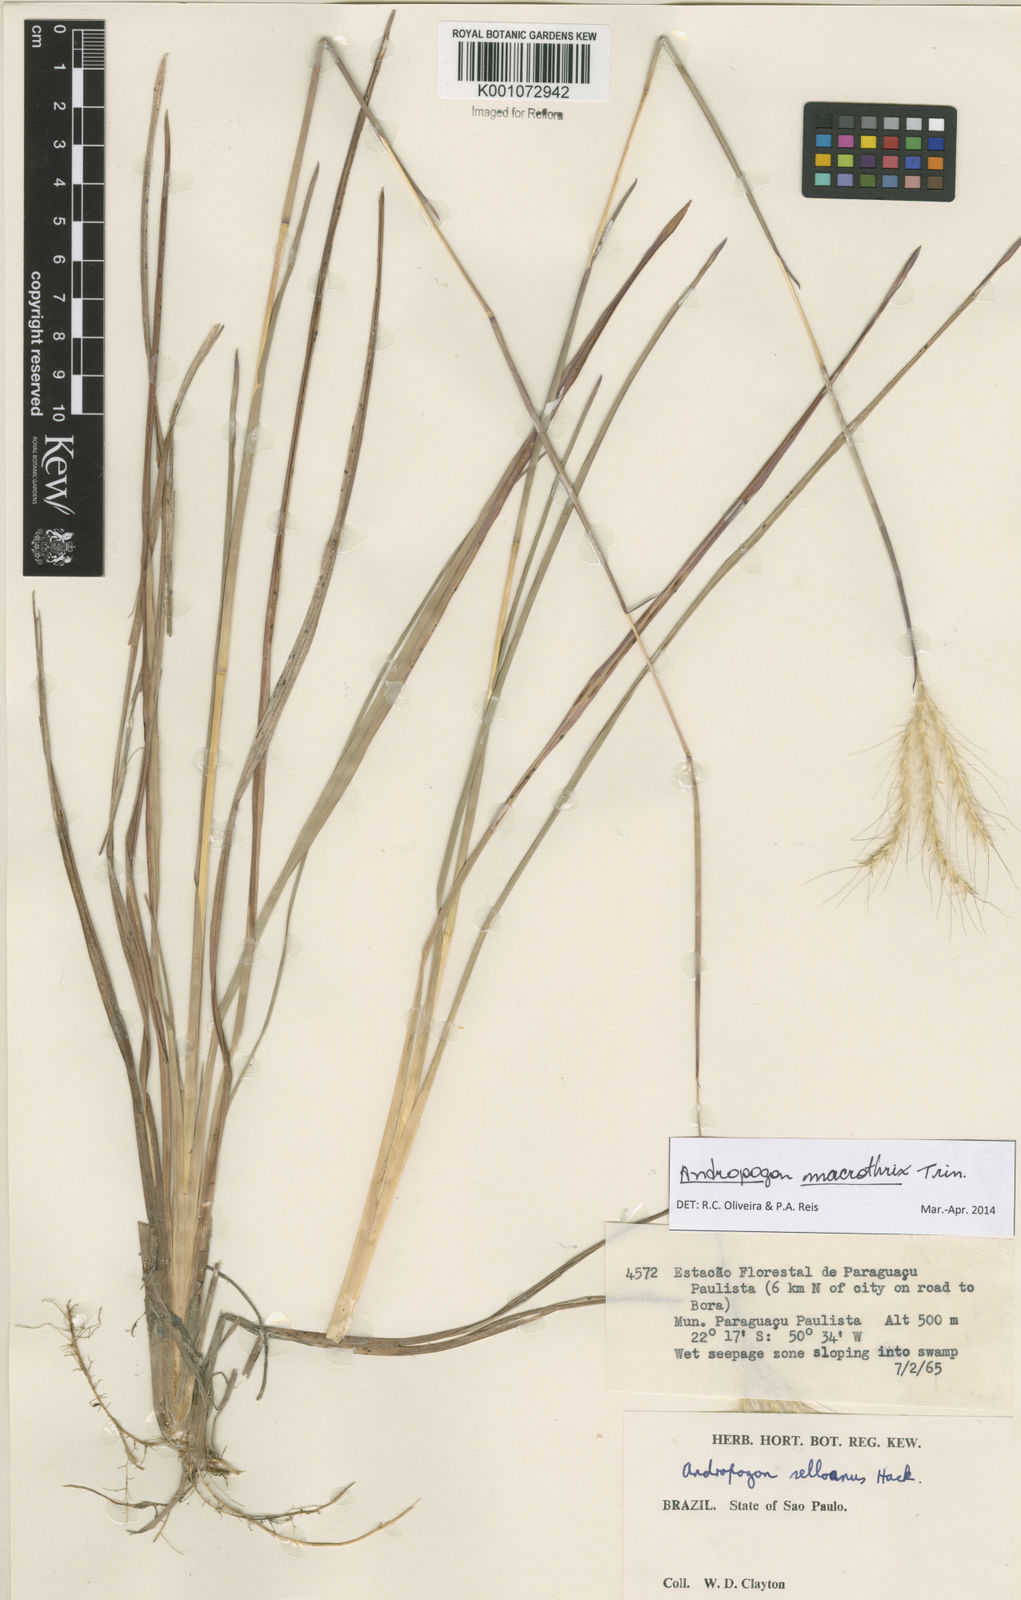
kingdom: Plantae
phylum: Tracheophyta
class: Liliopsida
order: Poales
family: Poaceae
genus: Andropogon
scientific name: Andropogon macrothrix
